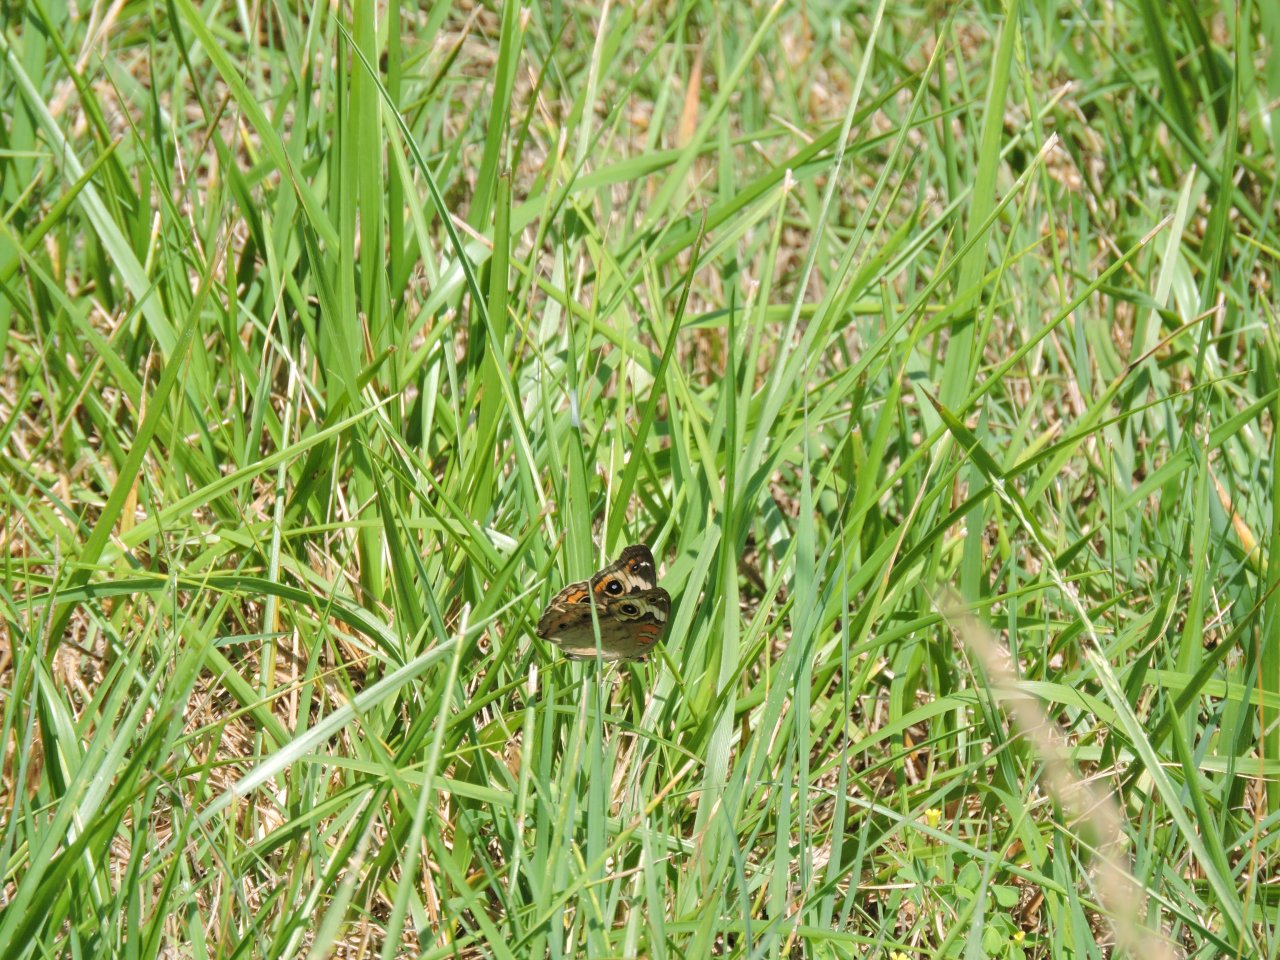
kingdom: Animalia
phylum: Arthropoda
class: Insecta
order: Lepidoptera
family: Nymphalidae
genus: Junonia
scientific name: Junonia coenia
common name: Common Buckeye
